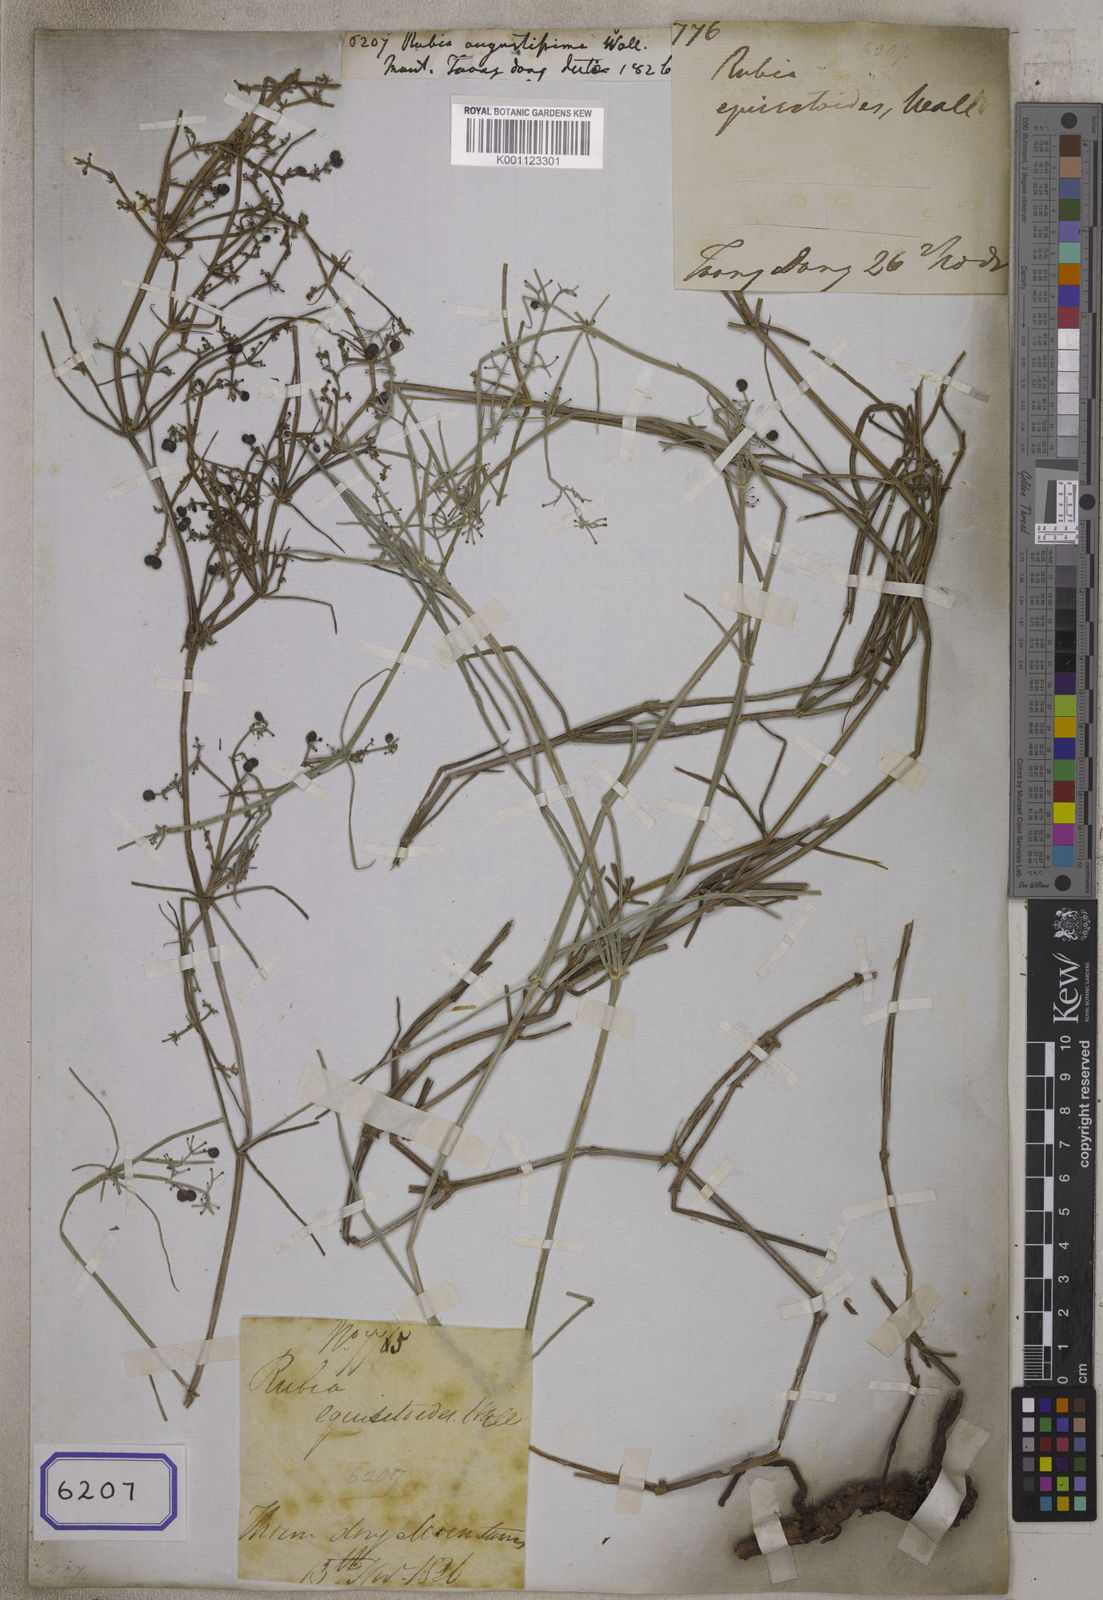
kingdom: Plantae
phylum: Tracheophyta
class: Magnoliopsida
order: Gentianales
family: Rubiaceae
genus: Rubia
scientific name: Rubia
